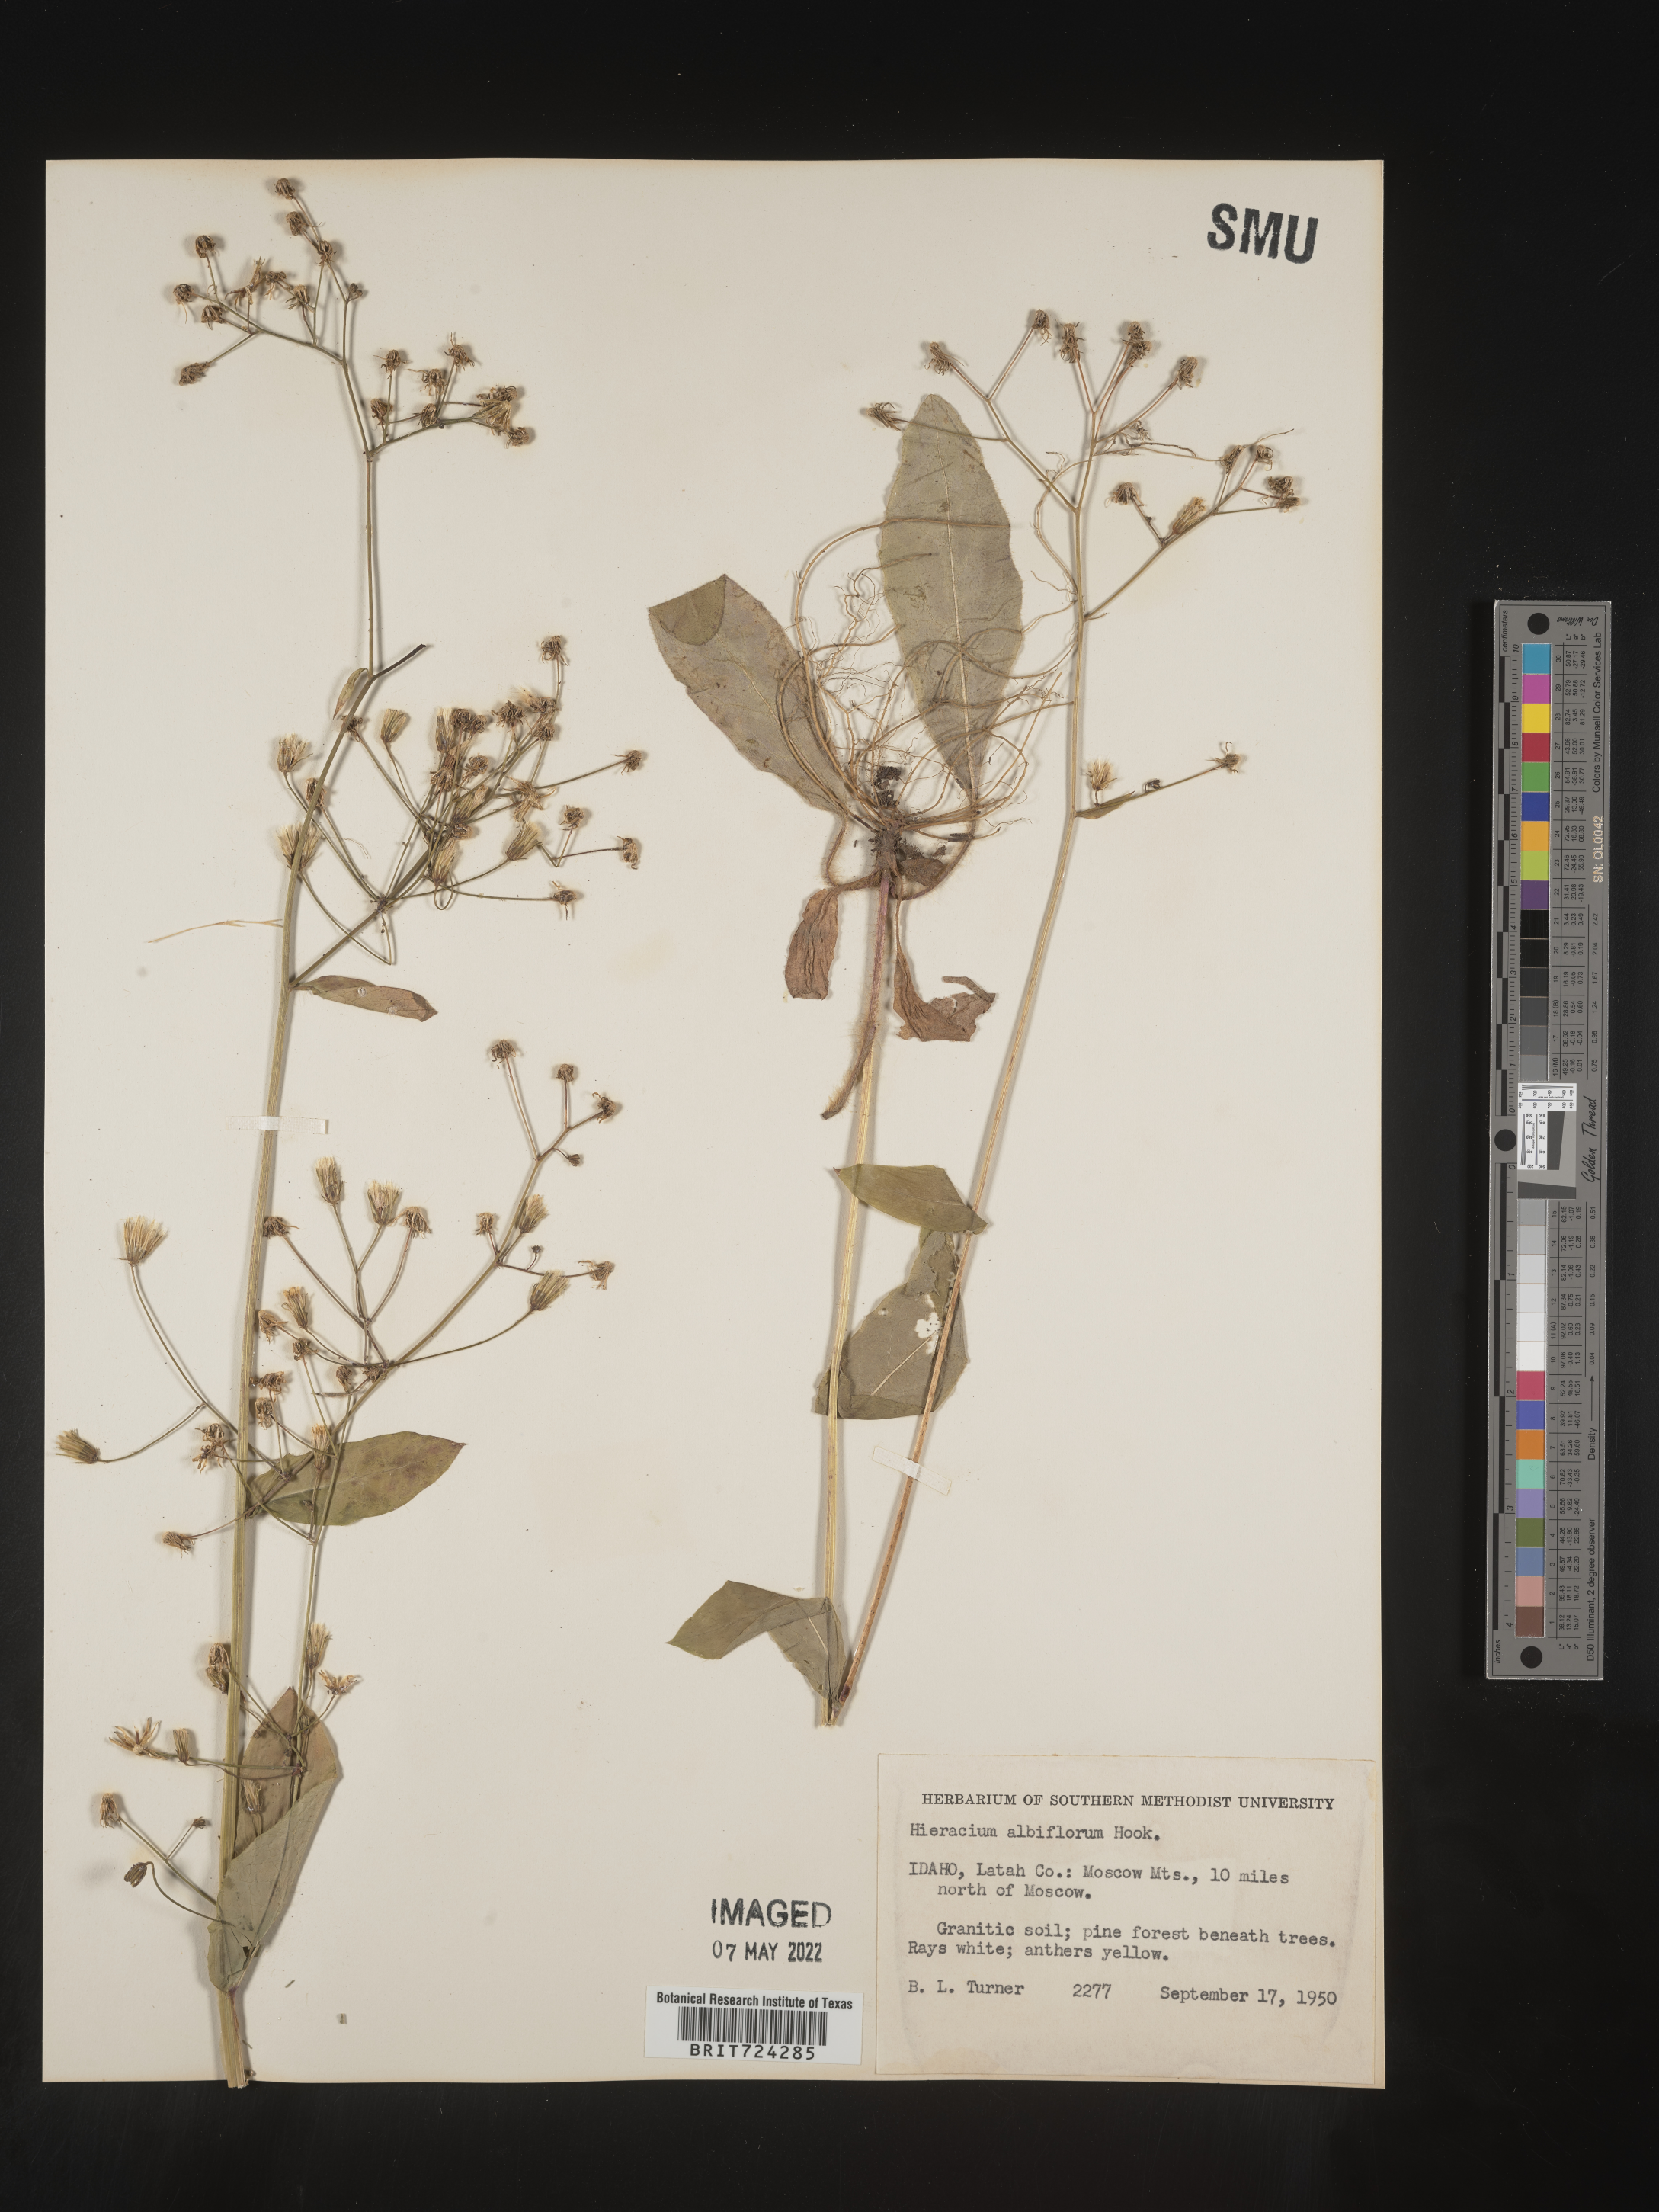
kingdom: Plantae
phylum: Tracheophyta
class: Magnoliopsida
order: Asterales
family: Asteraceae
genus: Hieracium
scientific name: Hieracium albiflorum
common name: White hawkweed
